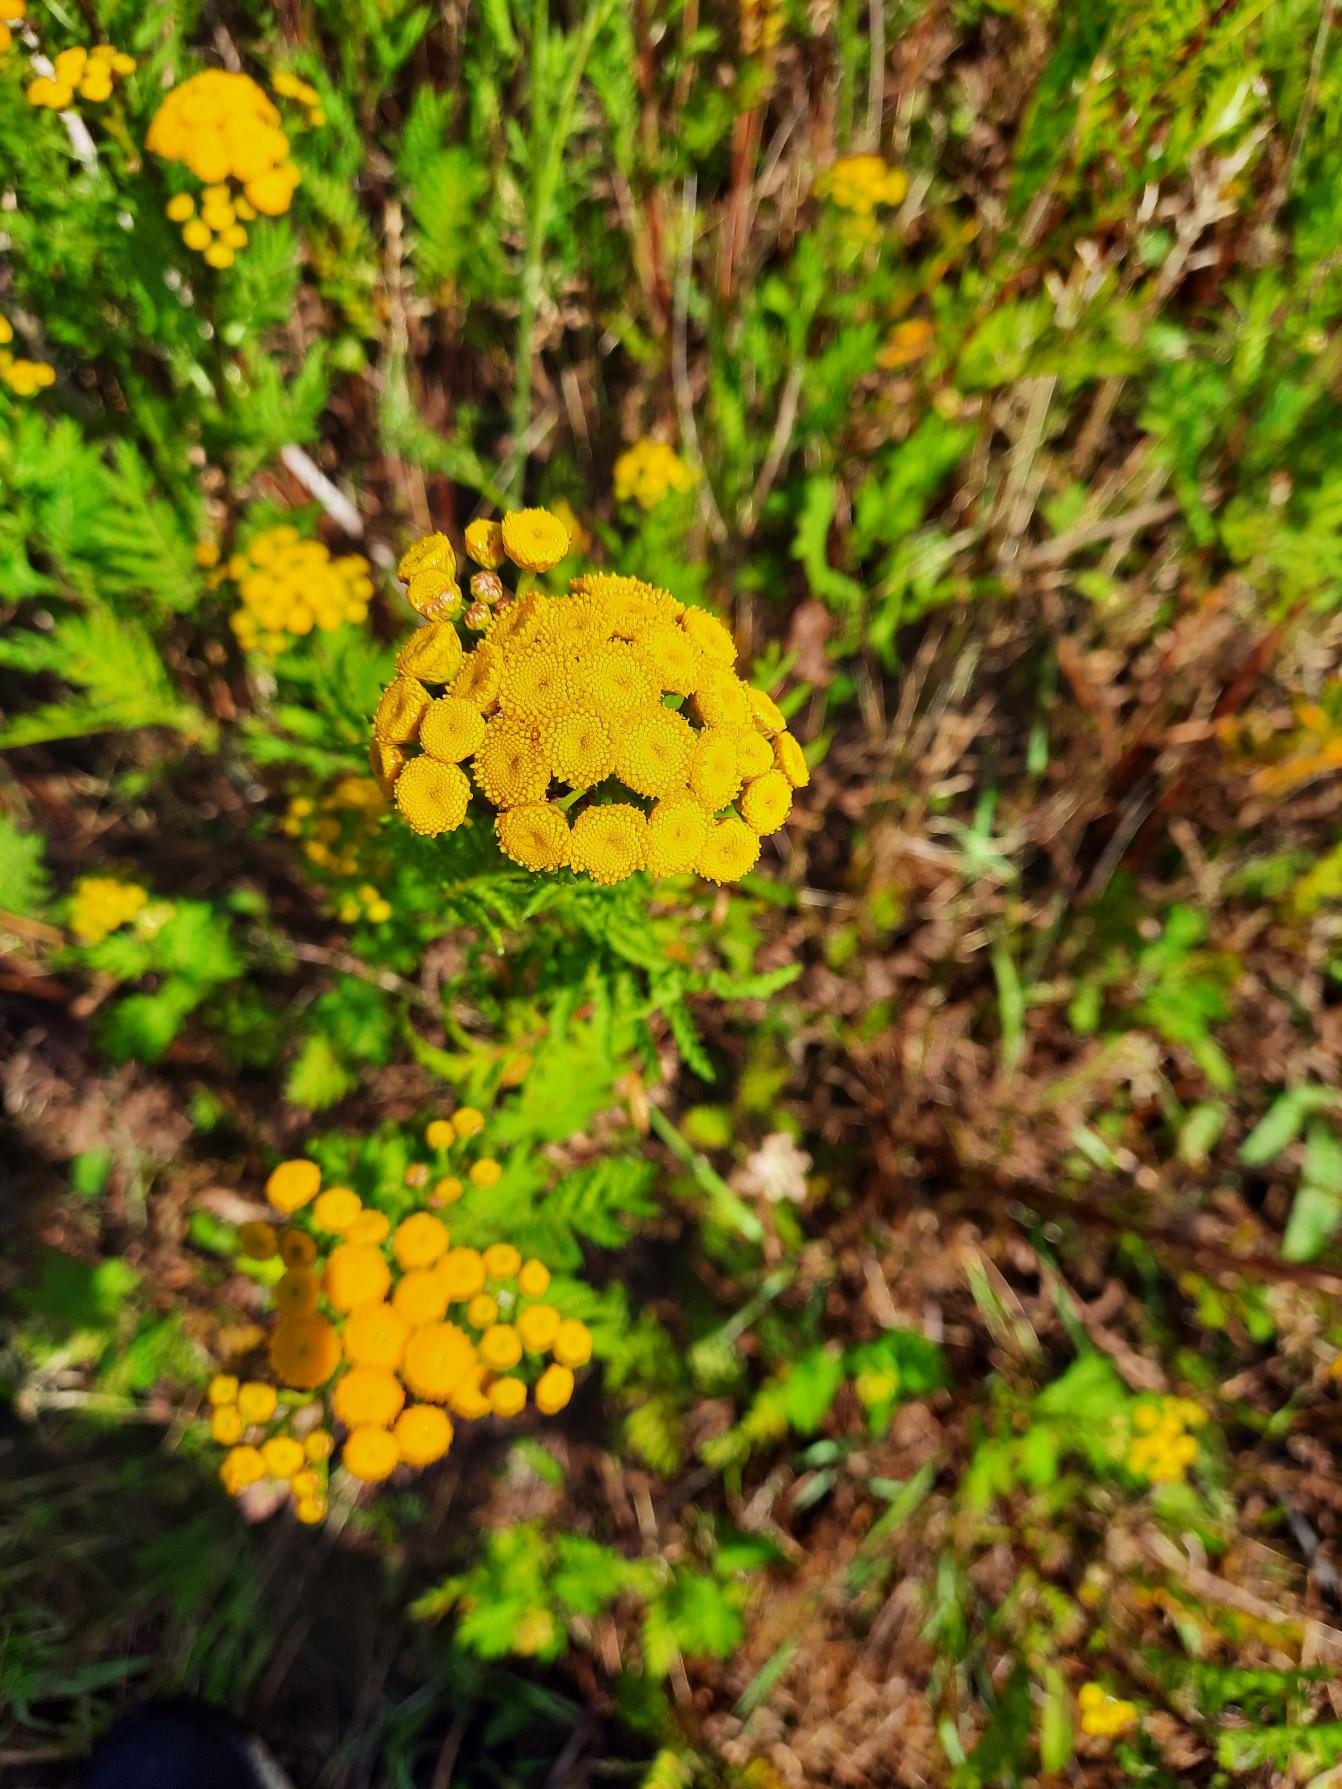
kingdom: Plantae
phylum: Tracheophyta
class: Magnoliopsida
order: Asterales
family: Asteraceae
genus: Tanacetum
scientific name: Tanacetum vulgare
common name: Rejnfan
